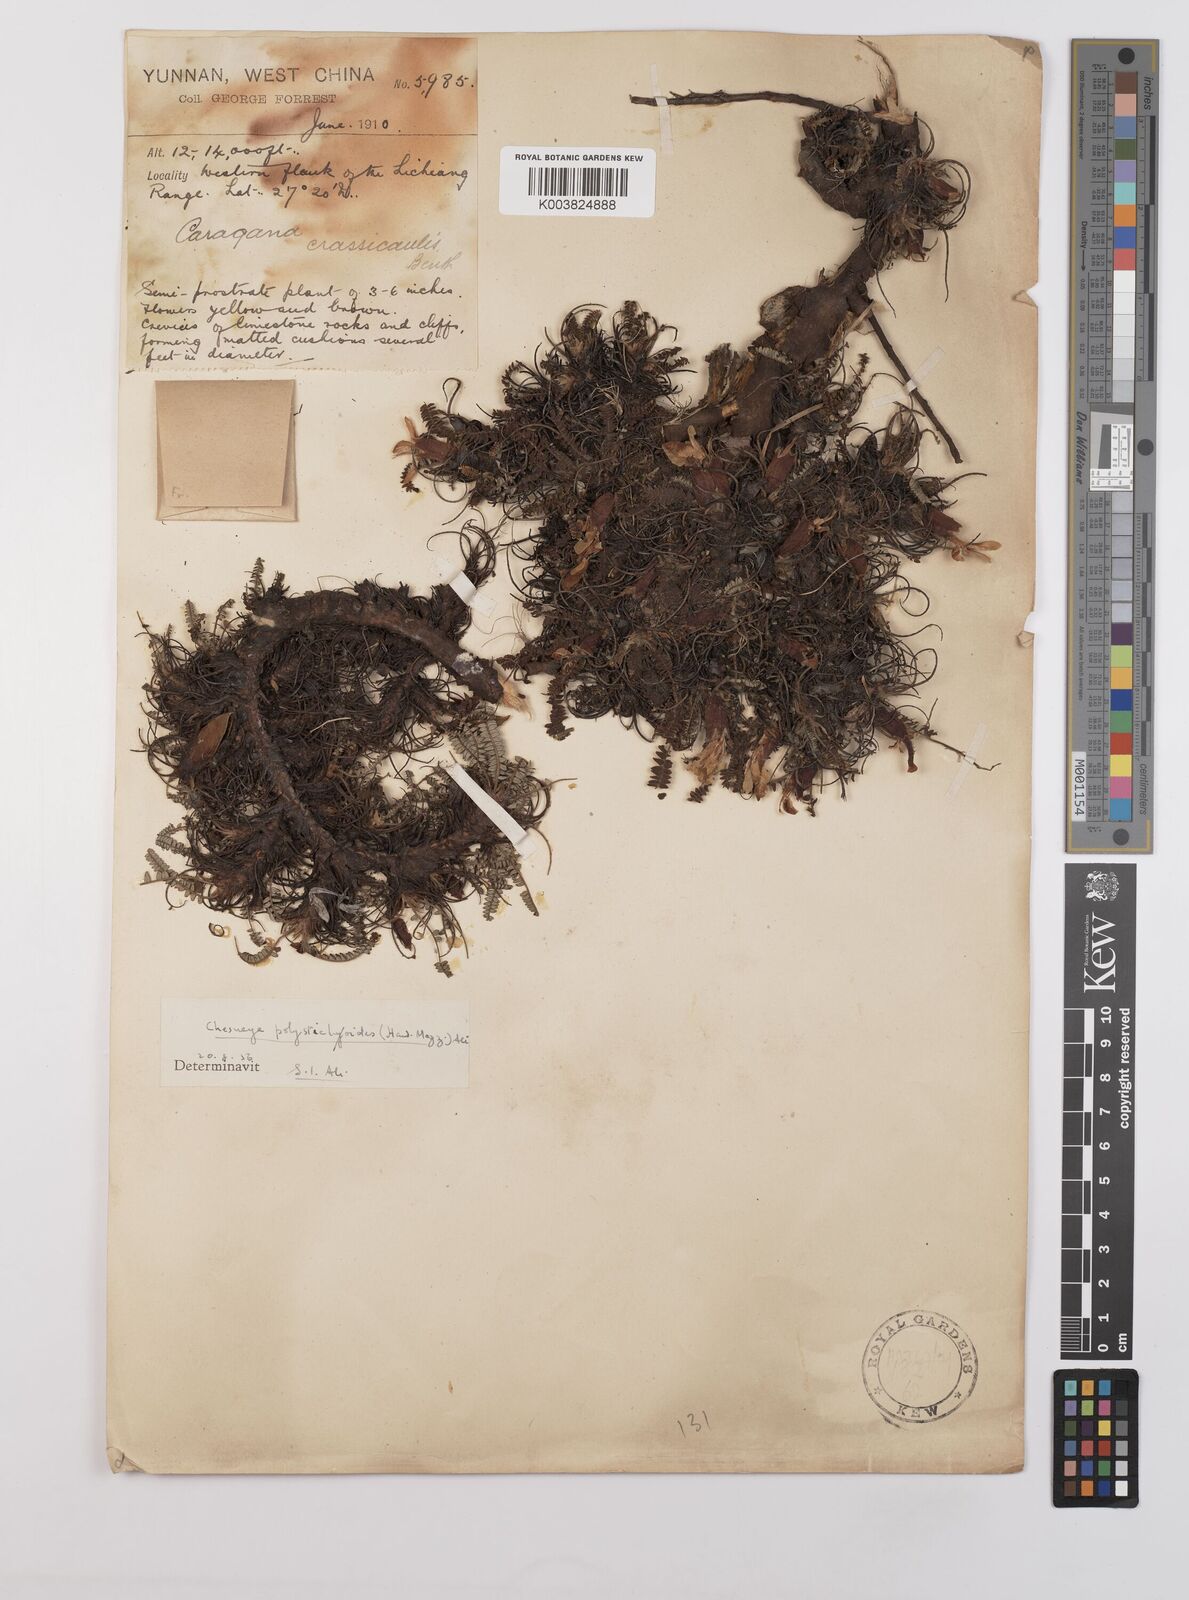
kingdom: Plantae
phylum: Tracheophyta
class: Magnoliopsida
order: Fabales
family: Fabaceae
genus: Chesneya
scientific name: Chesneya polystichoides
